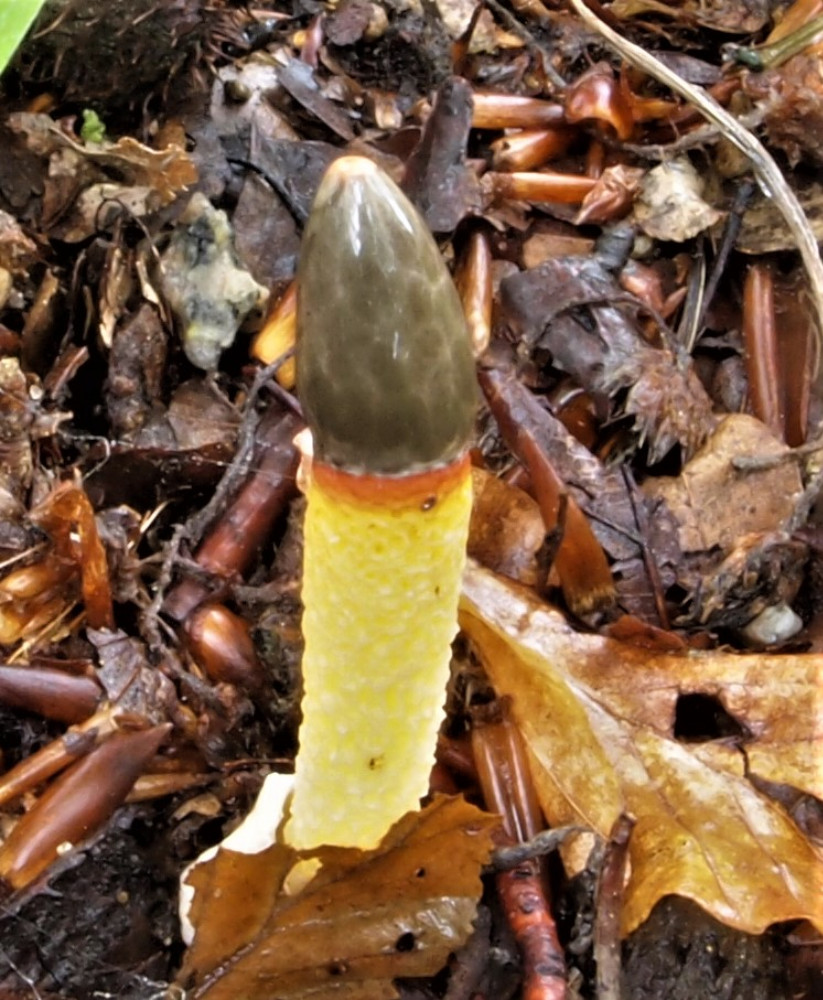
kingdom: Fungi
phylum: Basidiomycota
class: Agaricomycetes
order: Phallales
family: Phallaceae
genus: Mutinus
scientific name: Mutinus caninus
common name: hunde-stinksvamp
